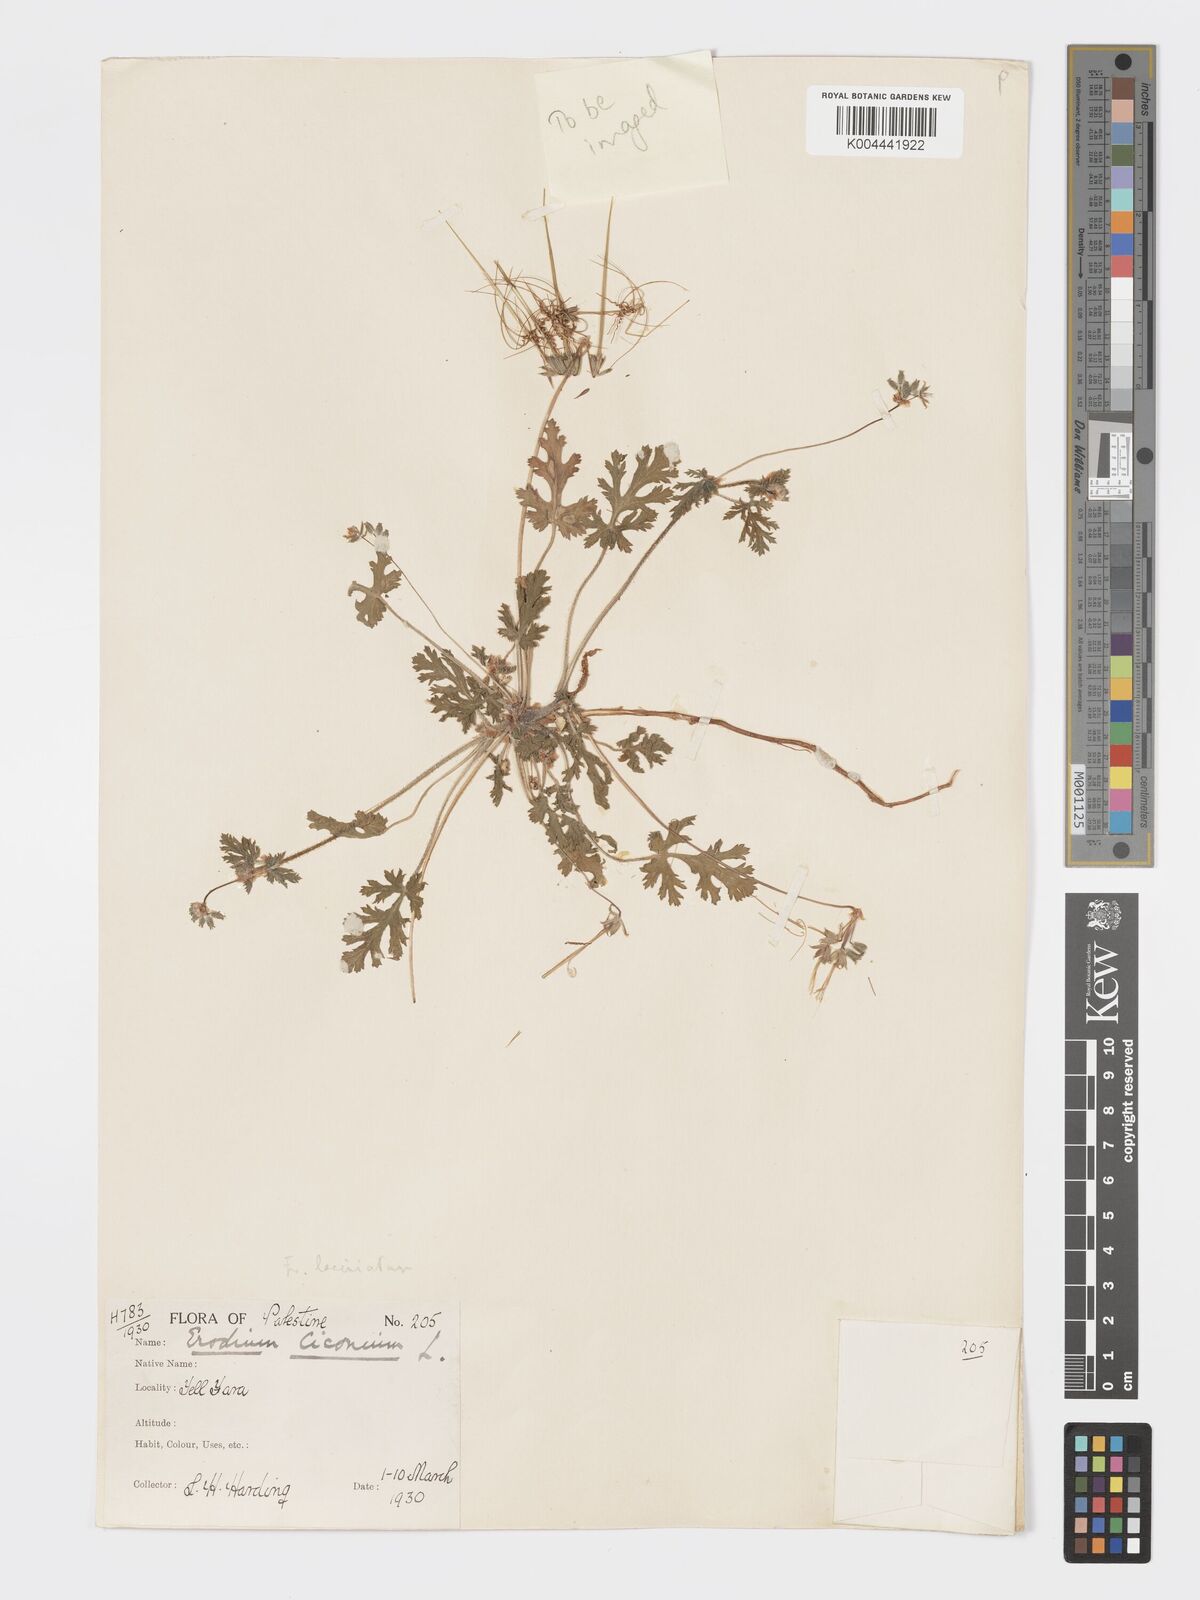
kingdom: Plantae
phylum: Tracheophyta
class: Magnoliopsida
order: Geraniales
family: Geraniaceae
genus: Erodium
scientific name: Erodium laciniatum
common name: Cutleaf stork's bill
